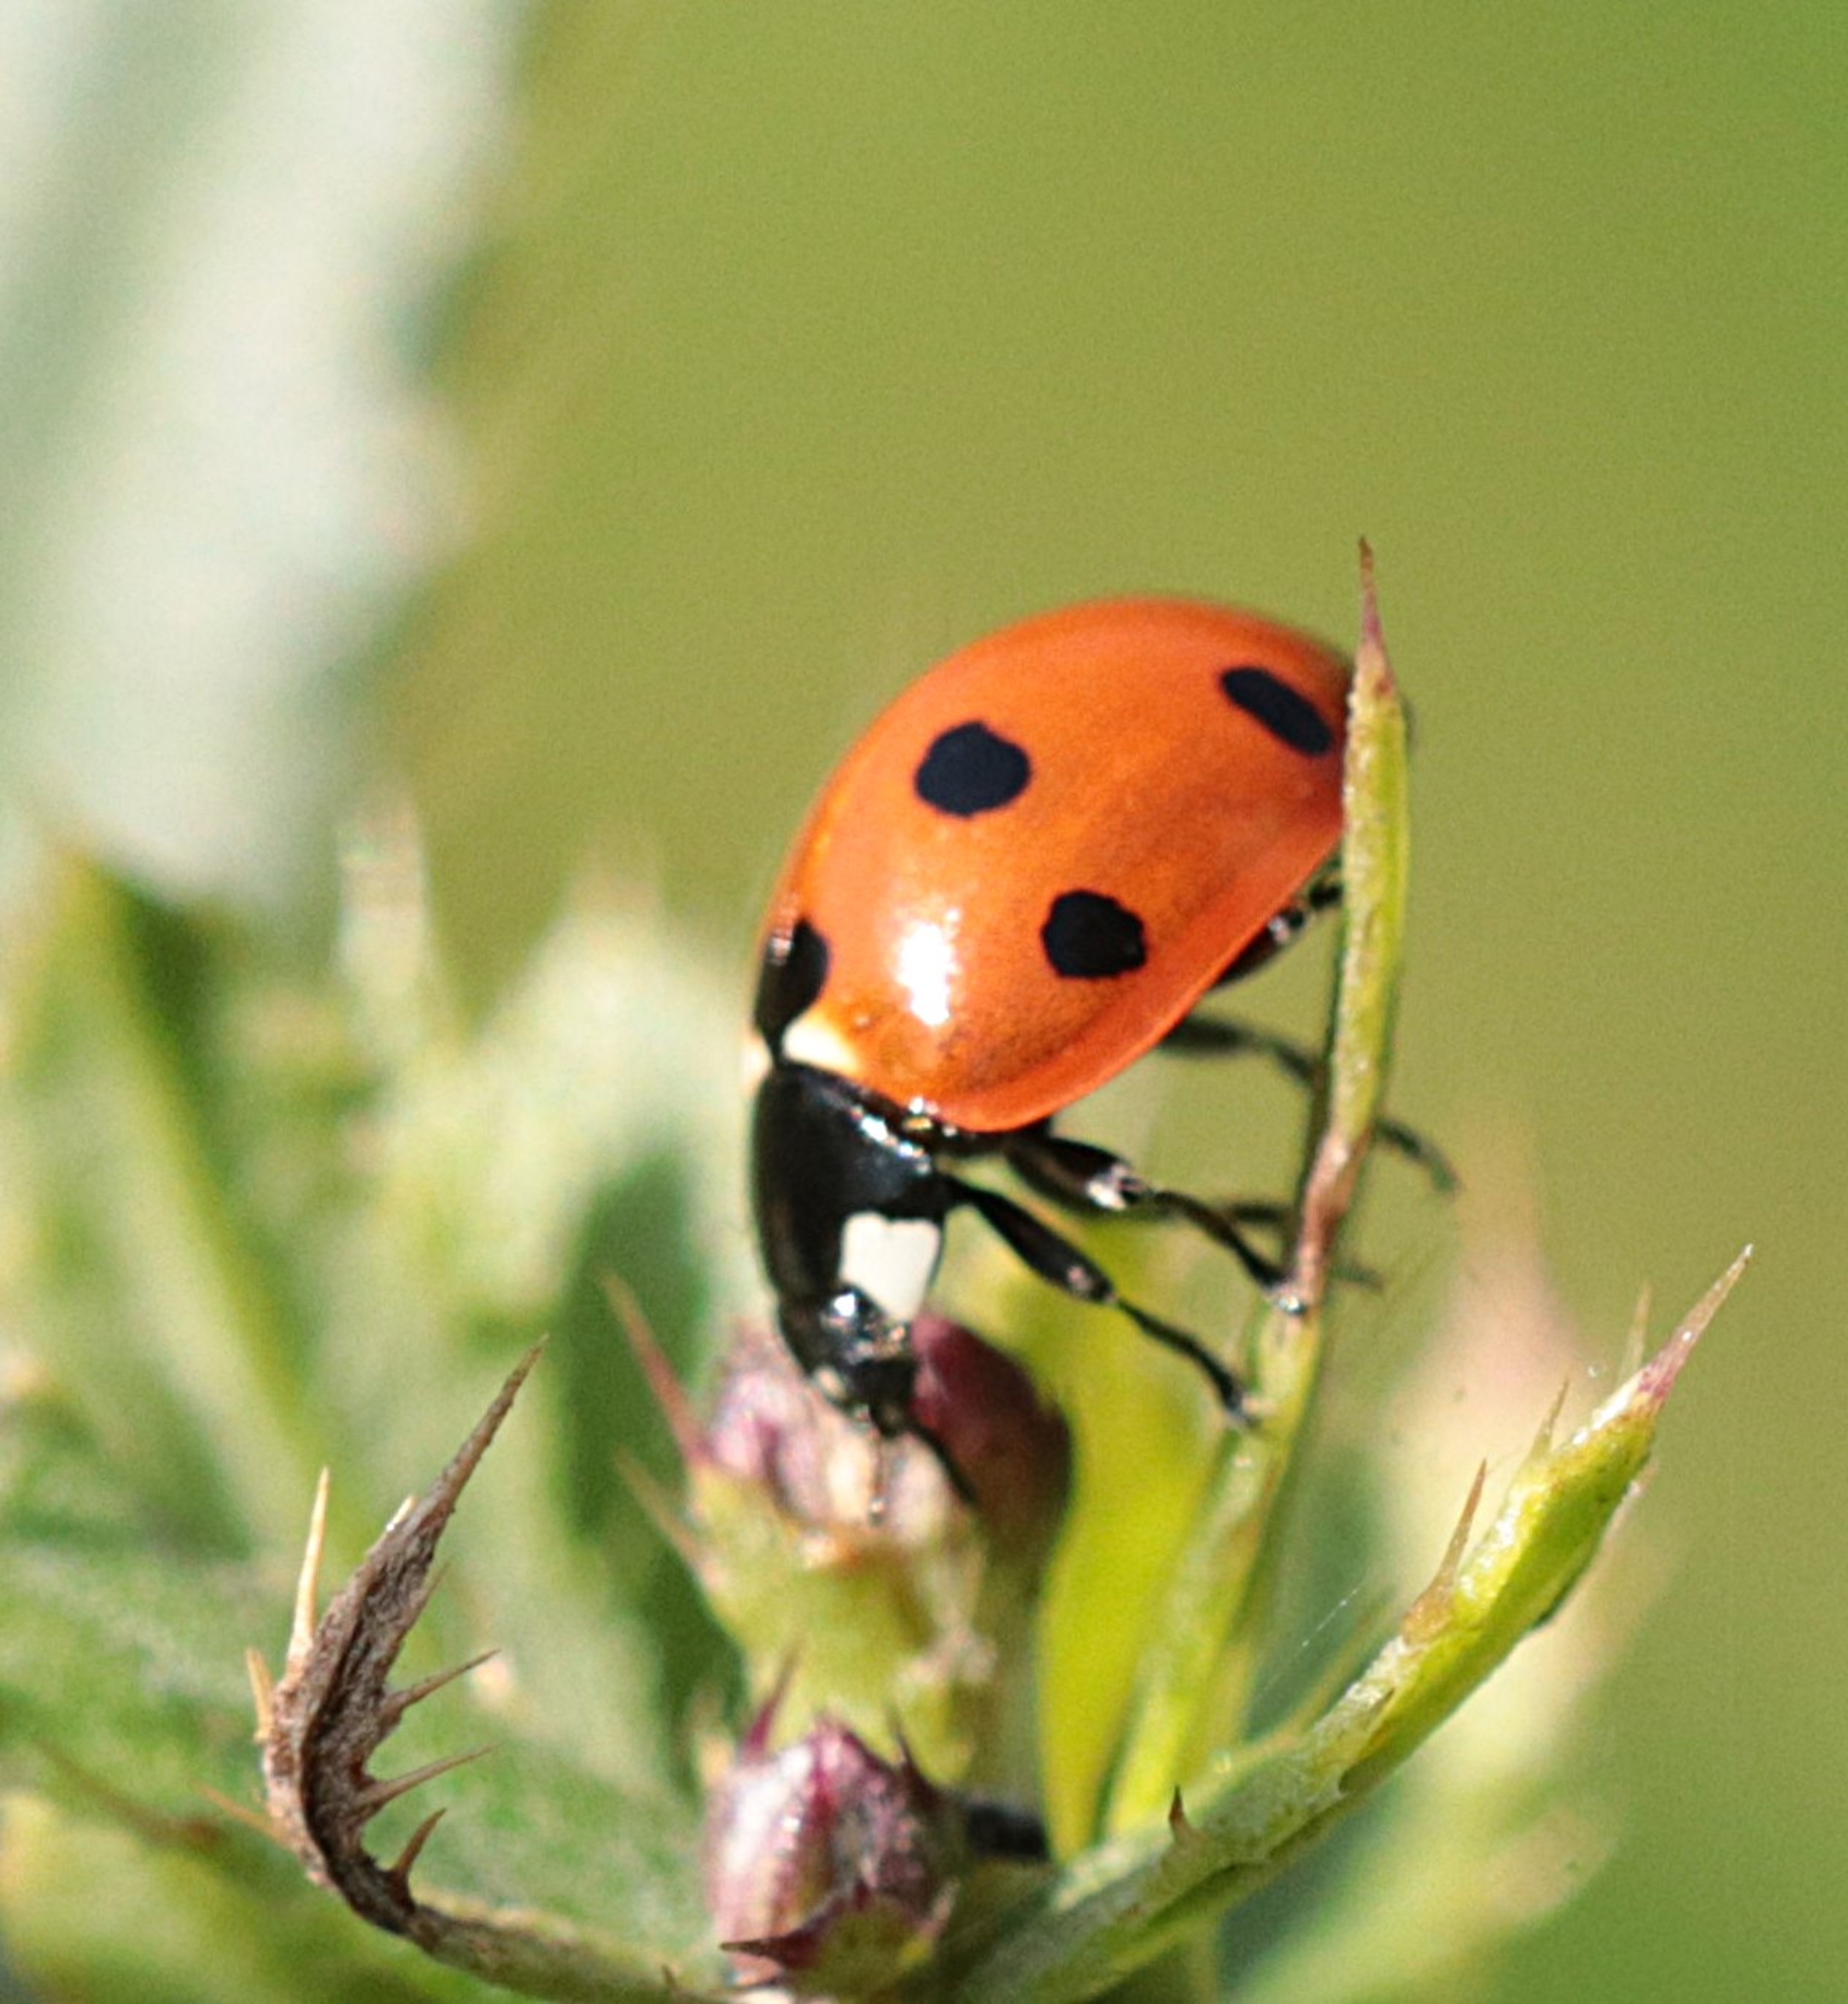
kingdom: Animalia
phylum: Arthropoda
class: Insecta
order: Coleoptera
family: Coccinellidae
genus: Coccinella
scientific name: Coccinella septempunctata
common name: Syvplettet mariehøne
